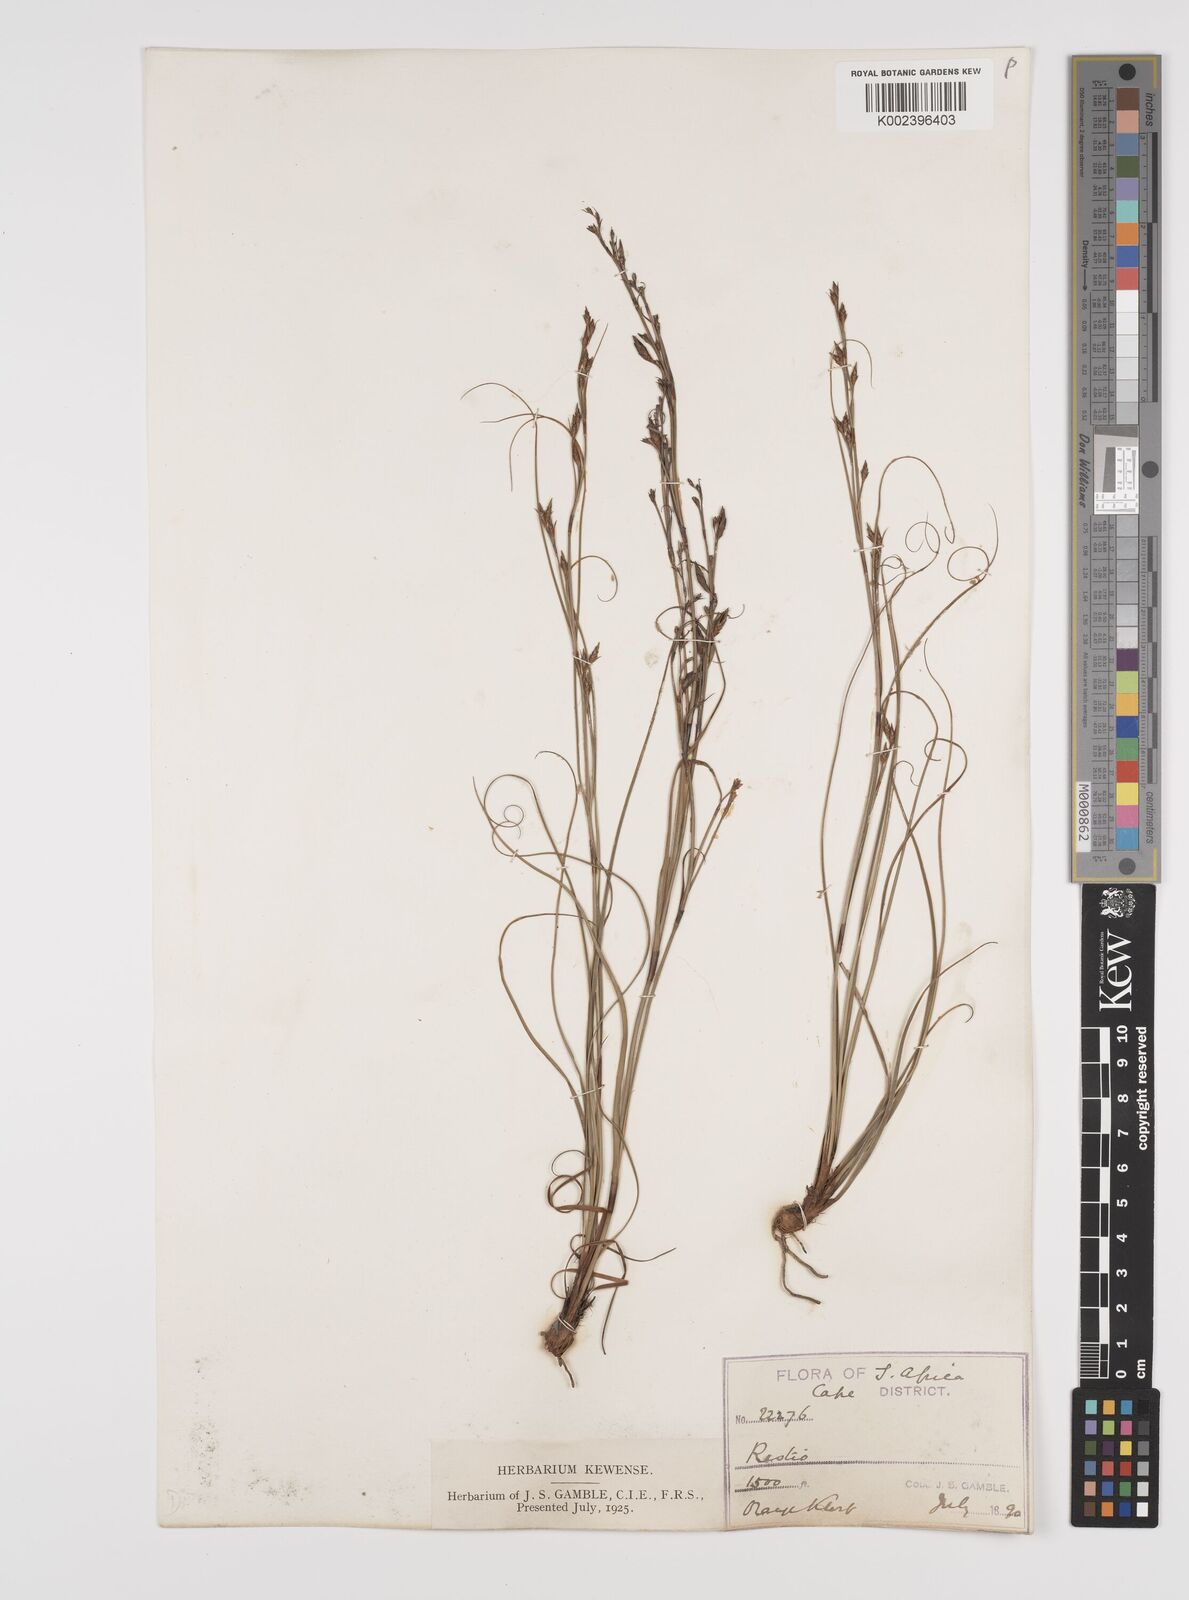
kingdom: Plantae
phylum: Tracheophyta
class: Liliopsida
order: Poales
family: Cyperaceae
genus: Tetraria
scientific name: Tetraria
